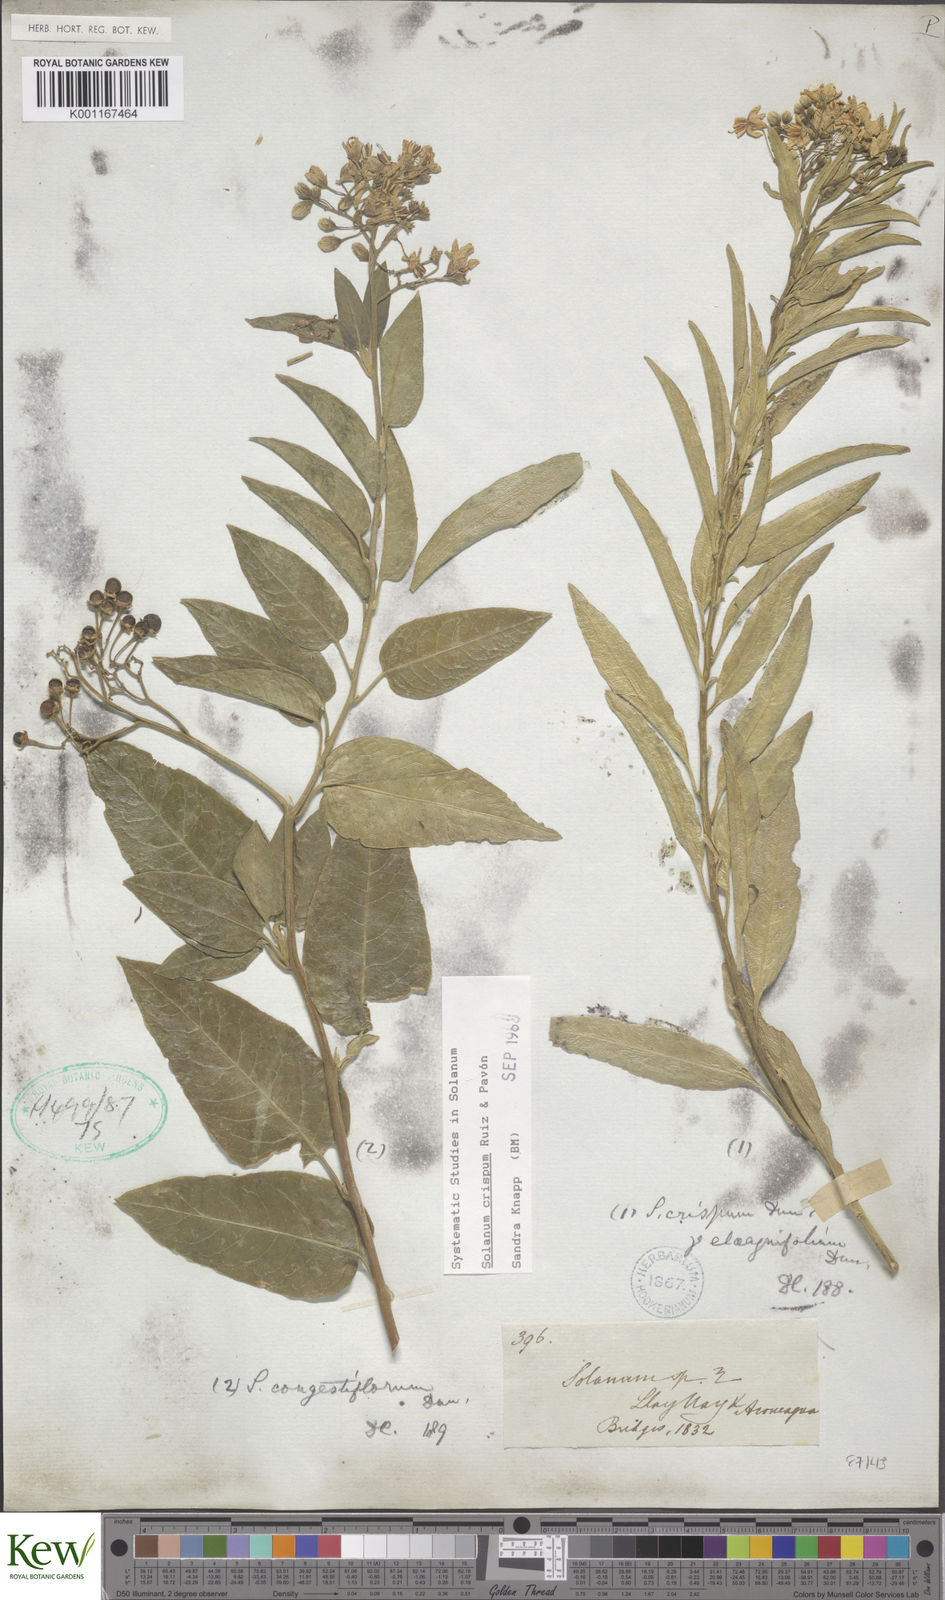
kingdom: Plantae
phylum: Tracheophyta
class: Magnoliopsida
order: Solanales
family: Solanaceae
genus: Solanum
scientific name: Solanum crispum
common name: Chilean nightshade
